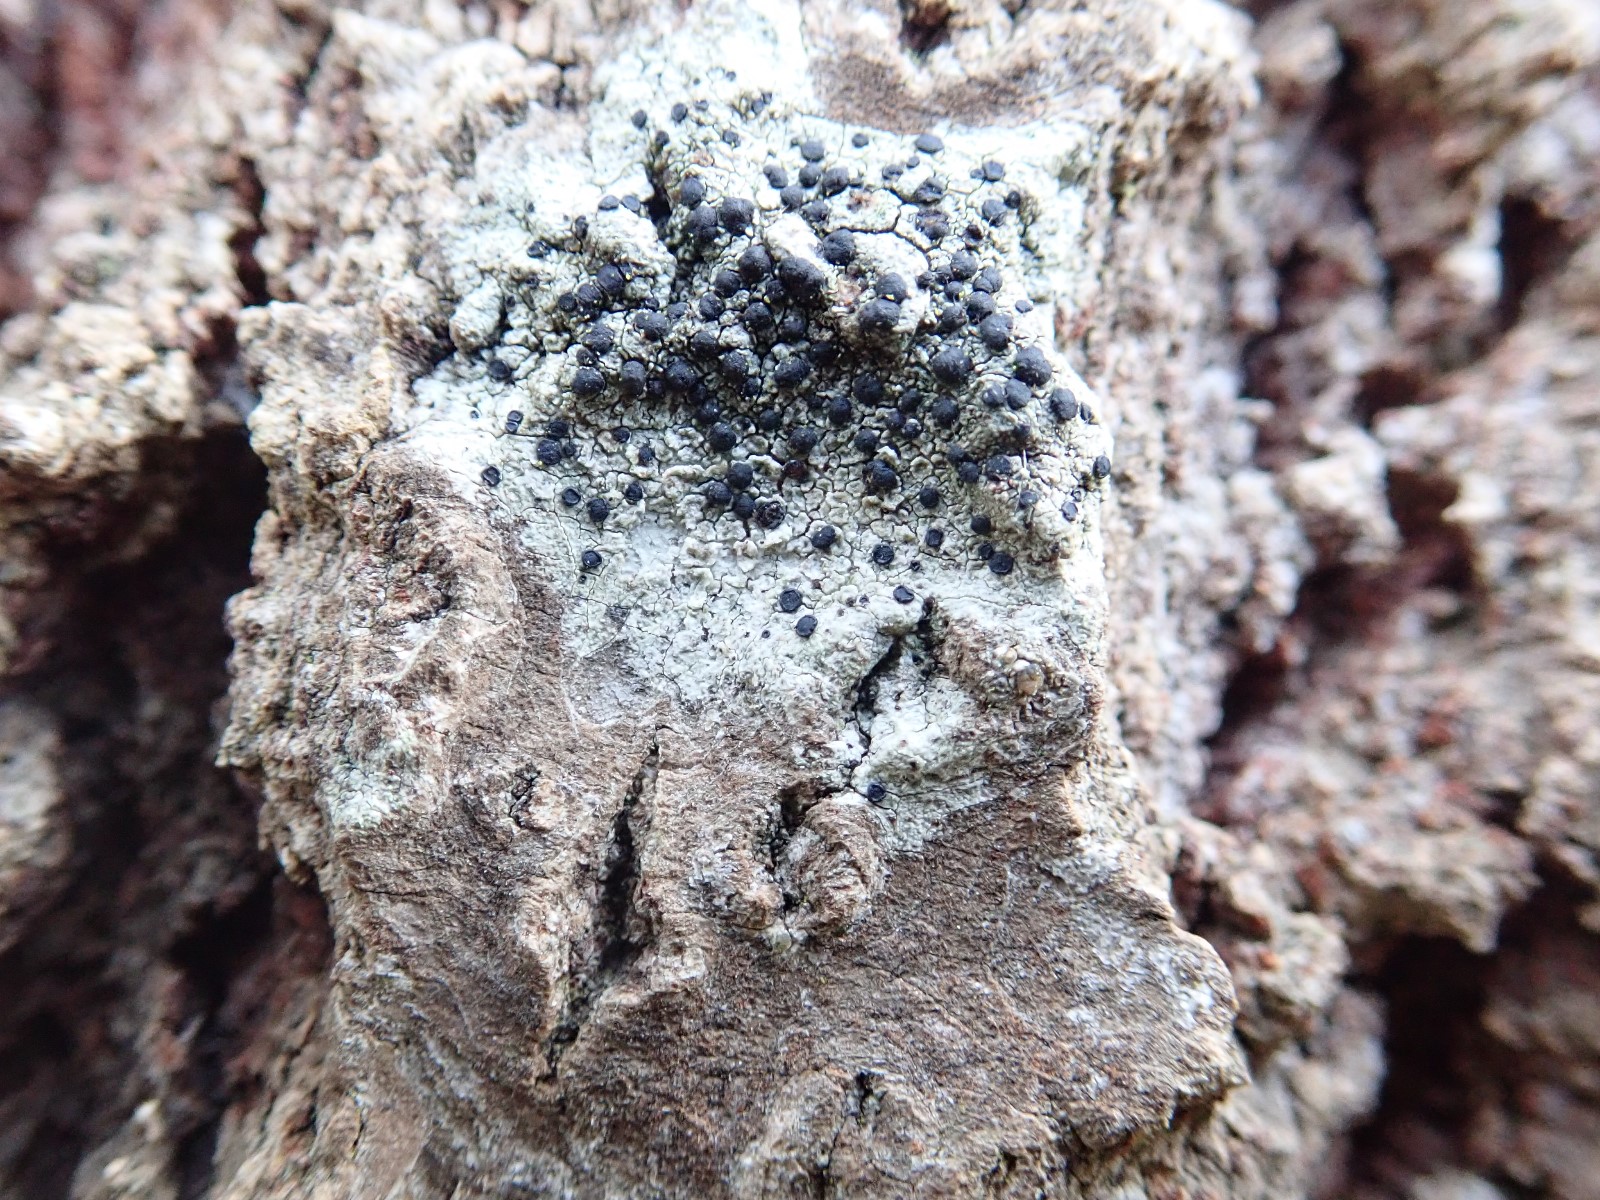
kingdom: Fungi
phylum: Ascomycota
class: Lecanoromycetes
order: Lecanorales
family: Lecanoraceae
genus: Lecidella
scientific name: Lecidella elaeochroma
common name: grågrøn skivelav
